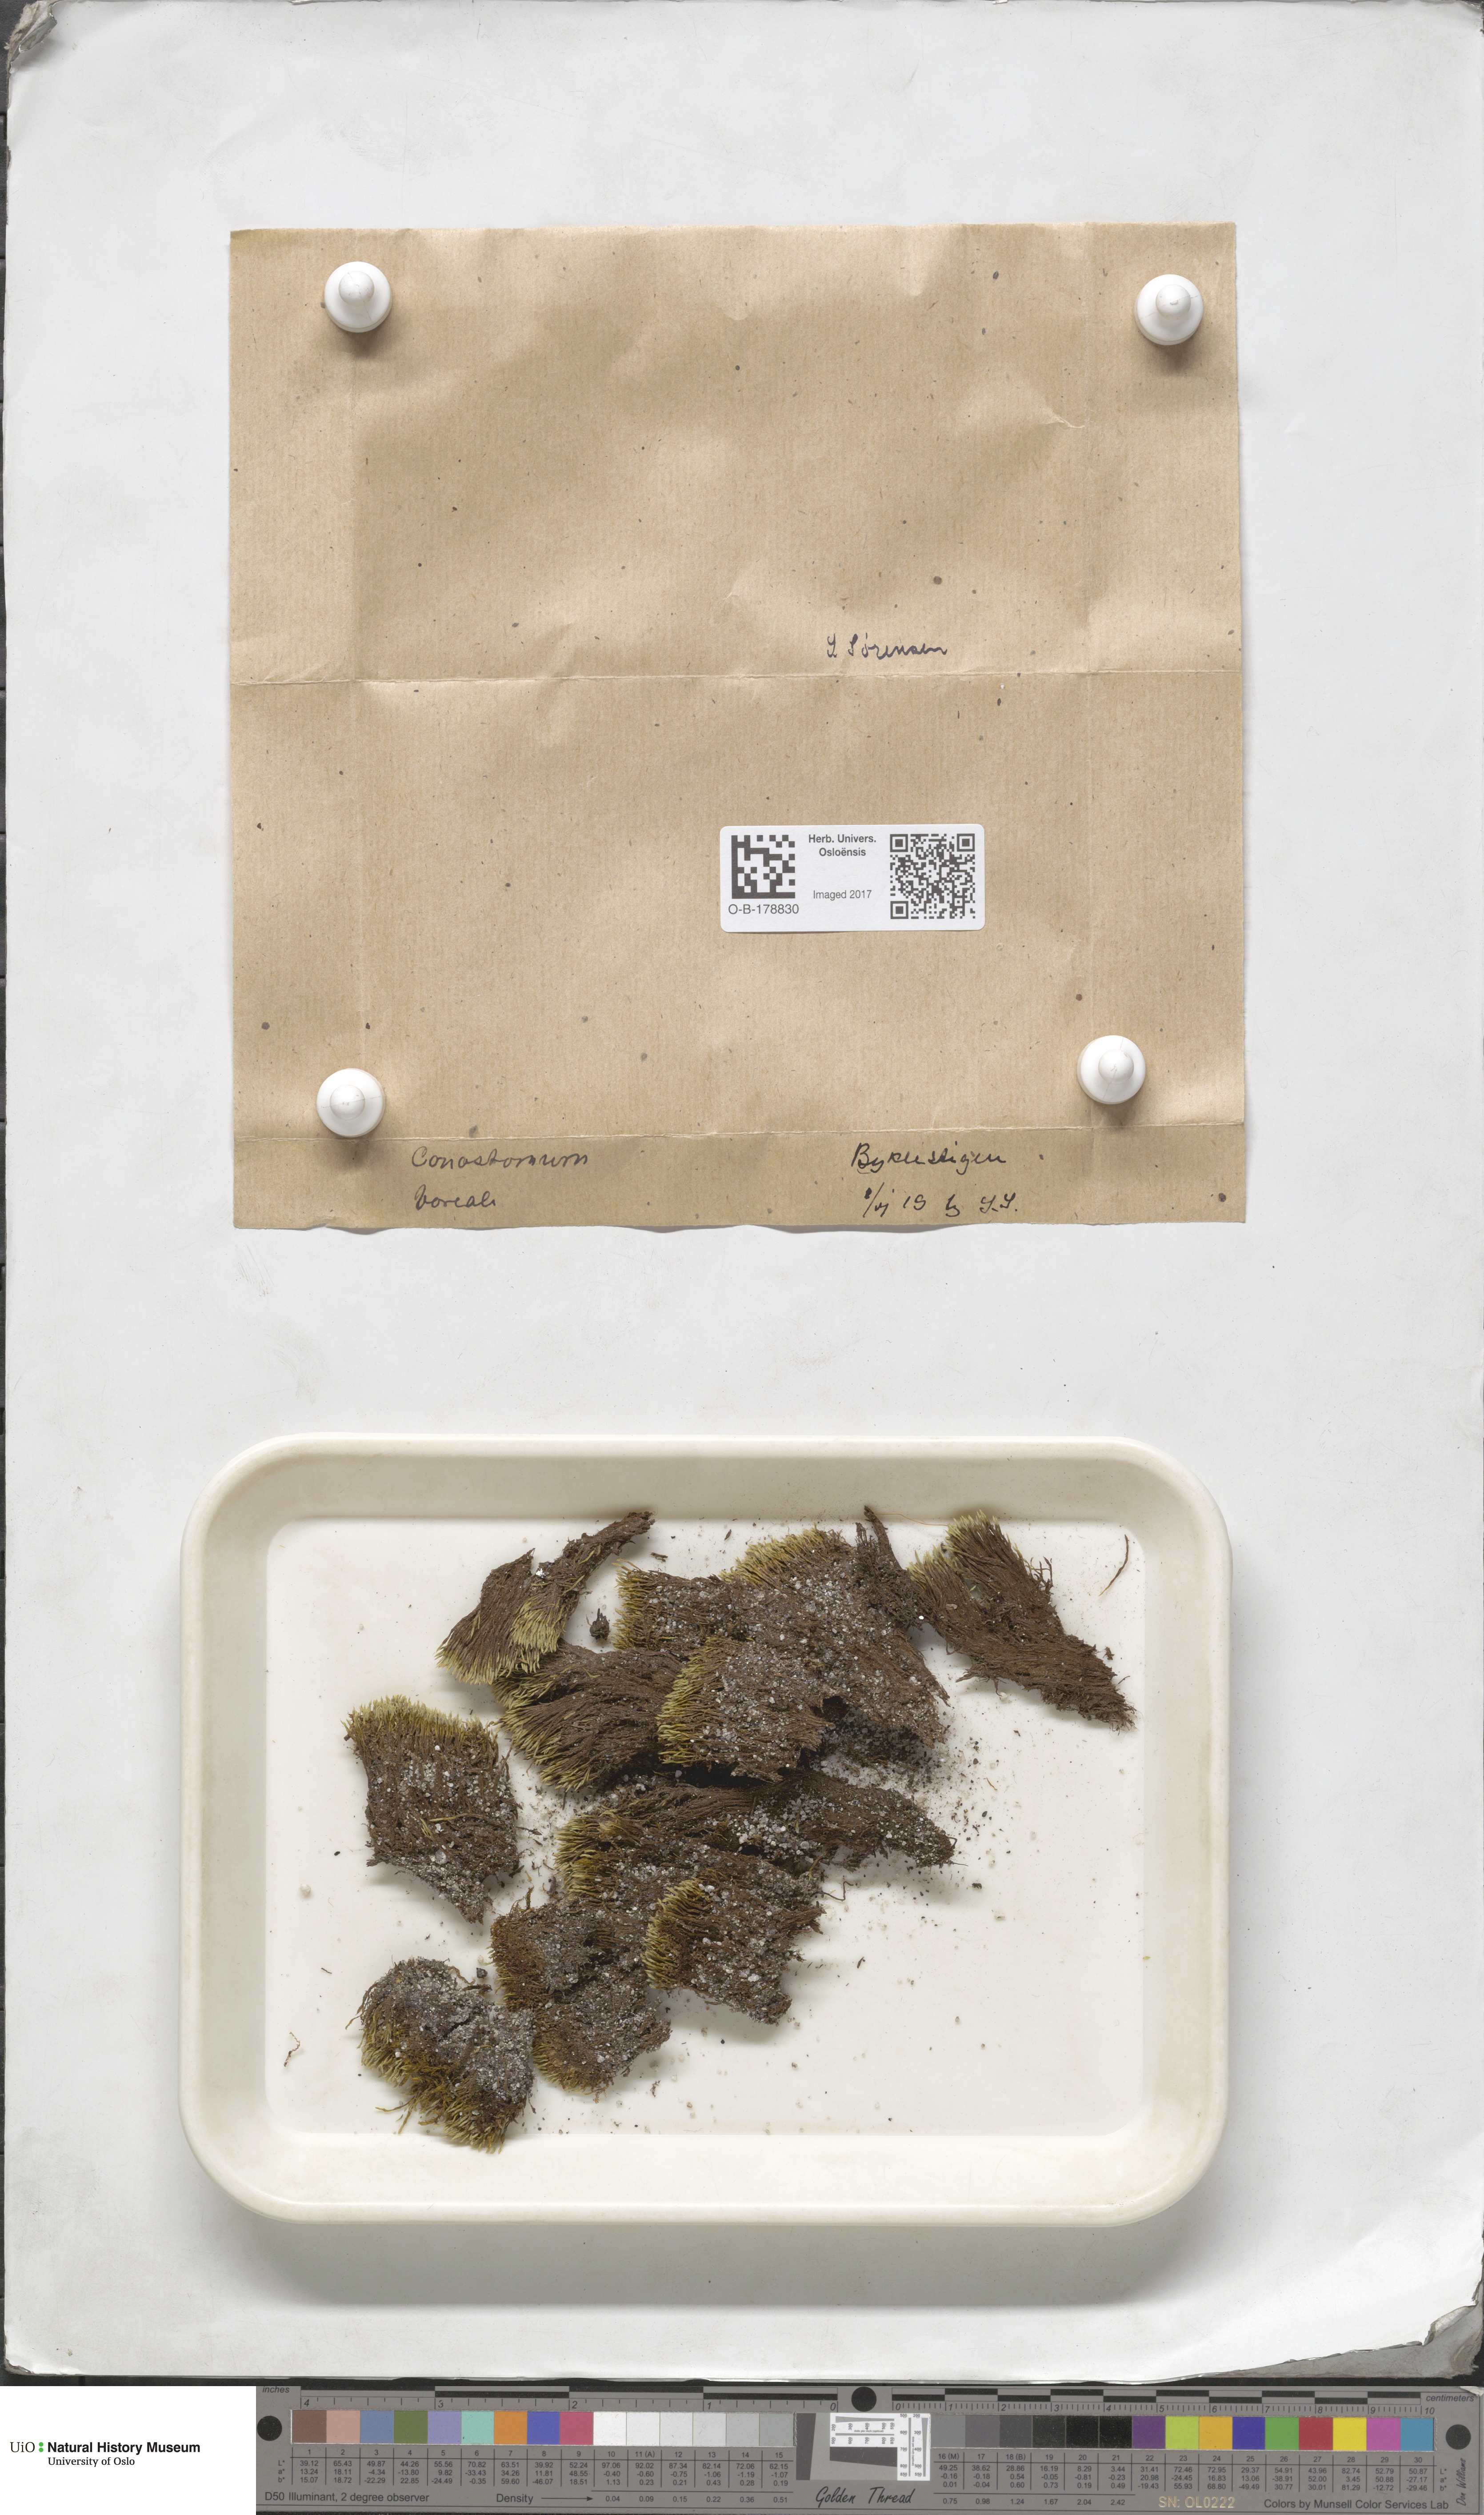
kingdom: Plantae
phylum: Bryophyta
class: Bryopsida
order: Bartramiales
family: Bartramiaceae
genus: Conostomum
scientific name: Conostomum tetragonum
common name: Helmet moss
